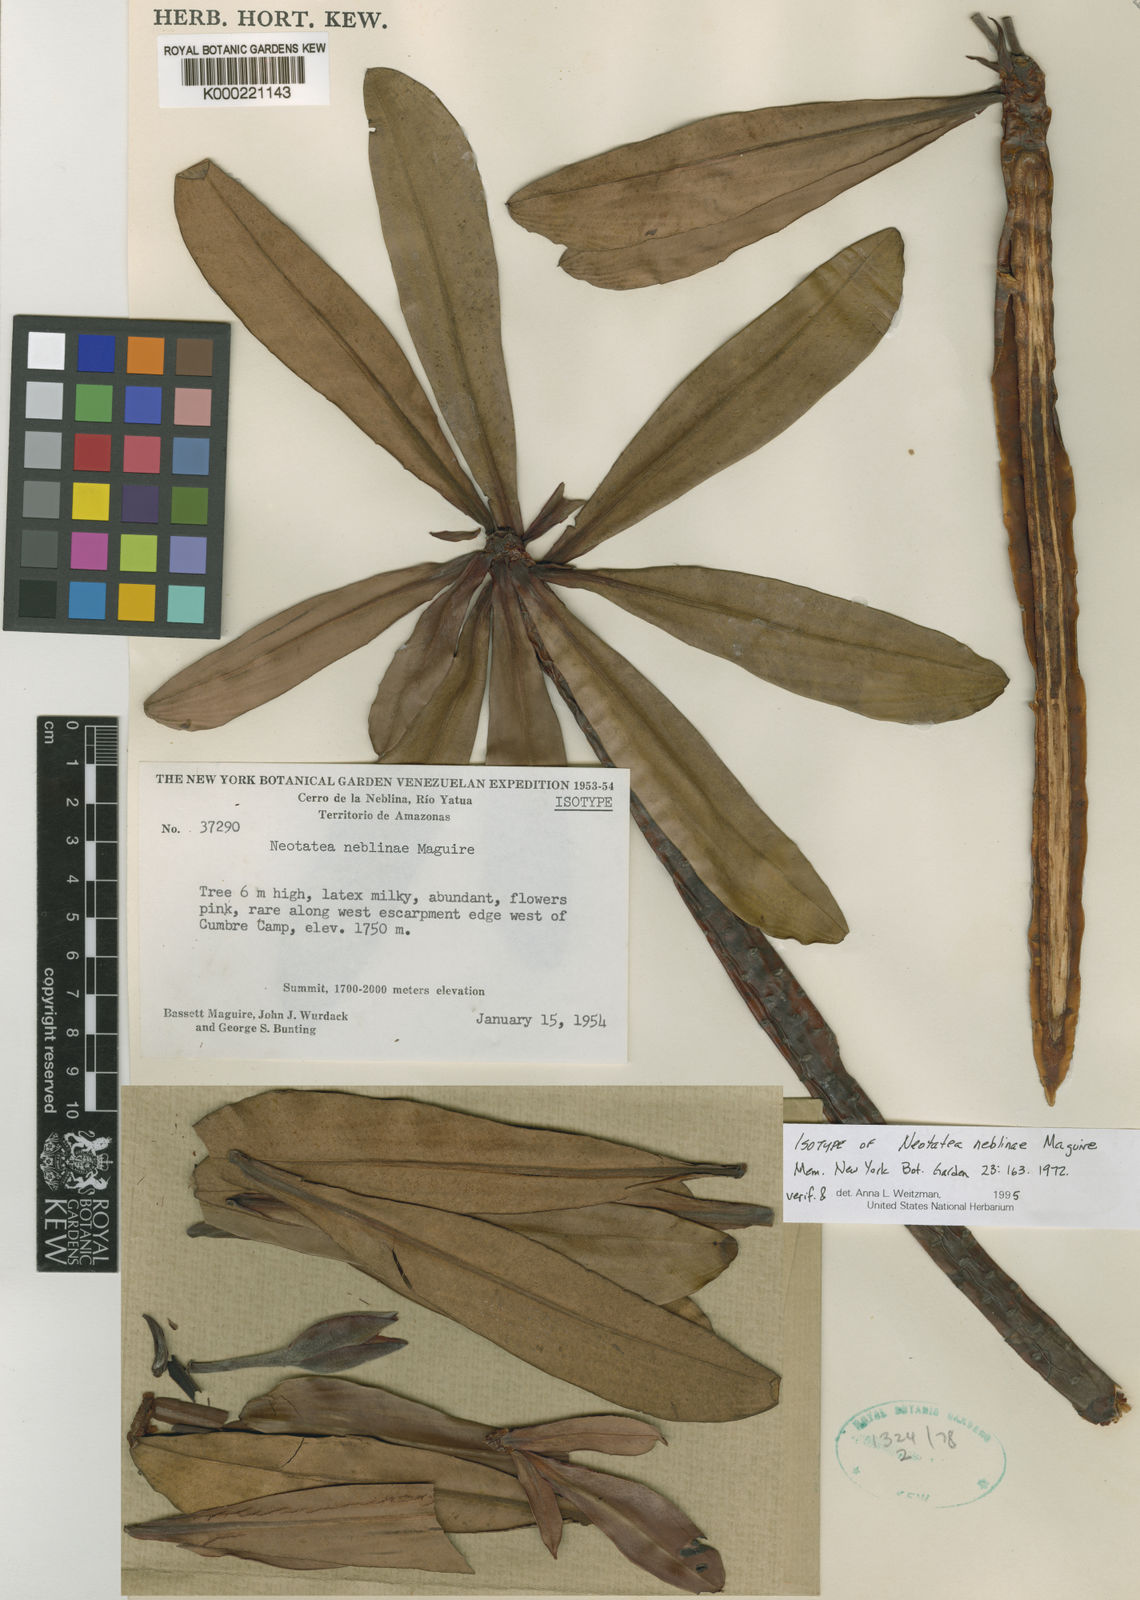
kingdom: Plantae
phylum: Tracheophyta
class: Magnoliopsida
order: Malpighiales
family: Calophyllaceae
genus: Neotatea
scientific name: Neotatea neblinae
